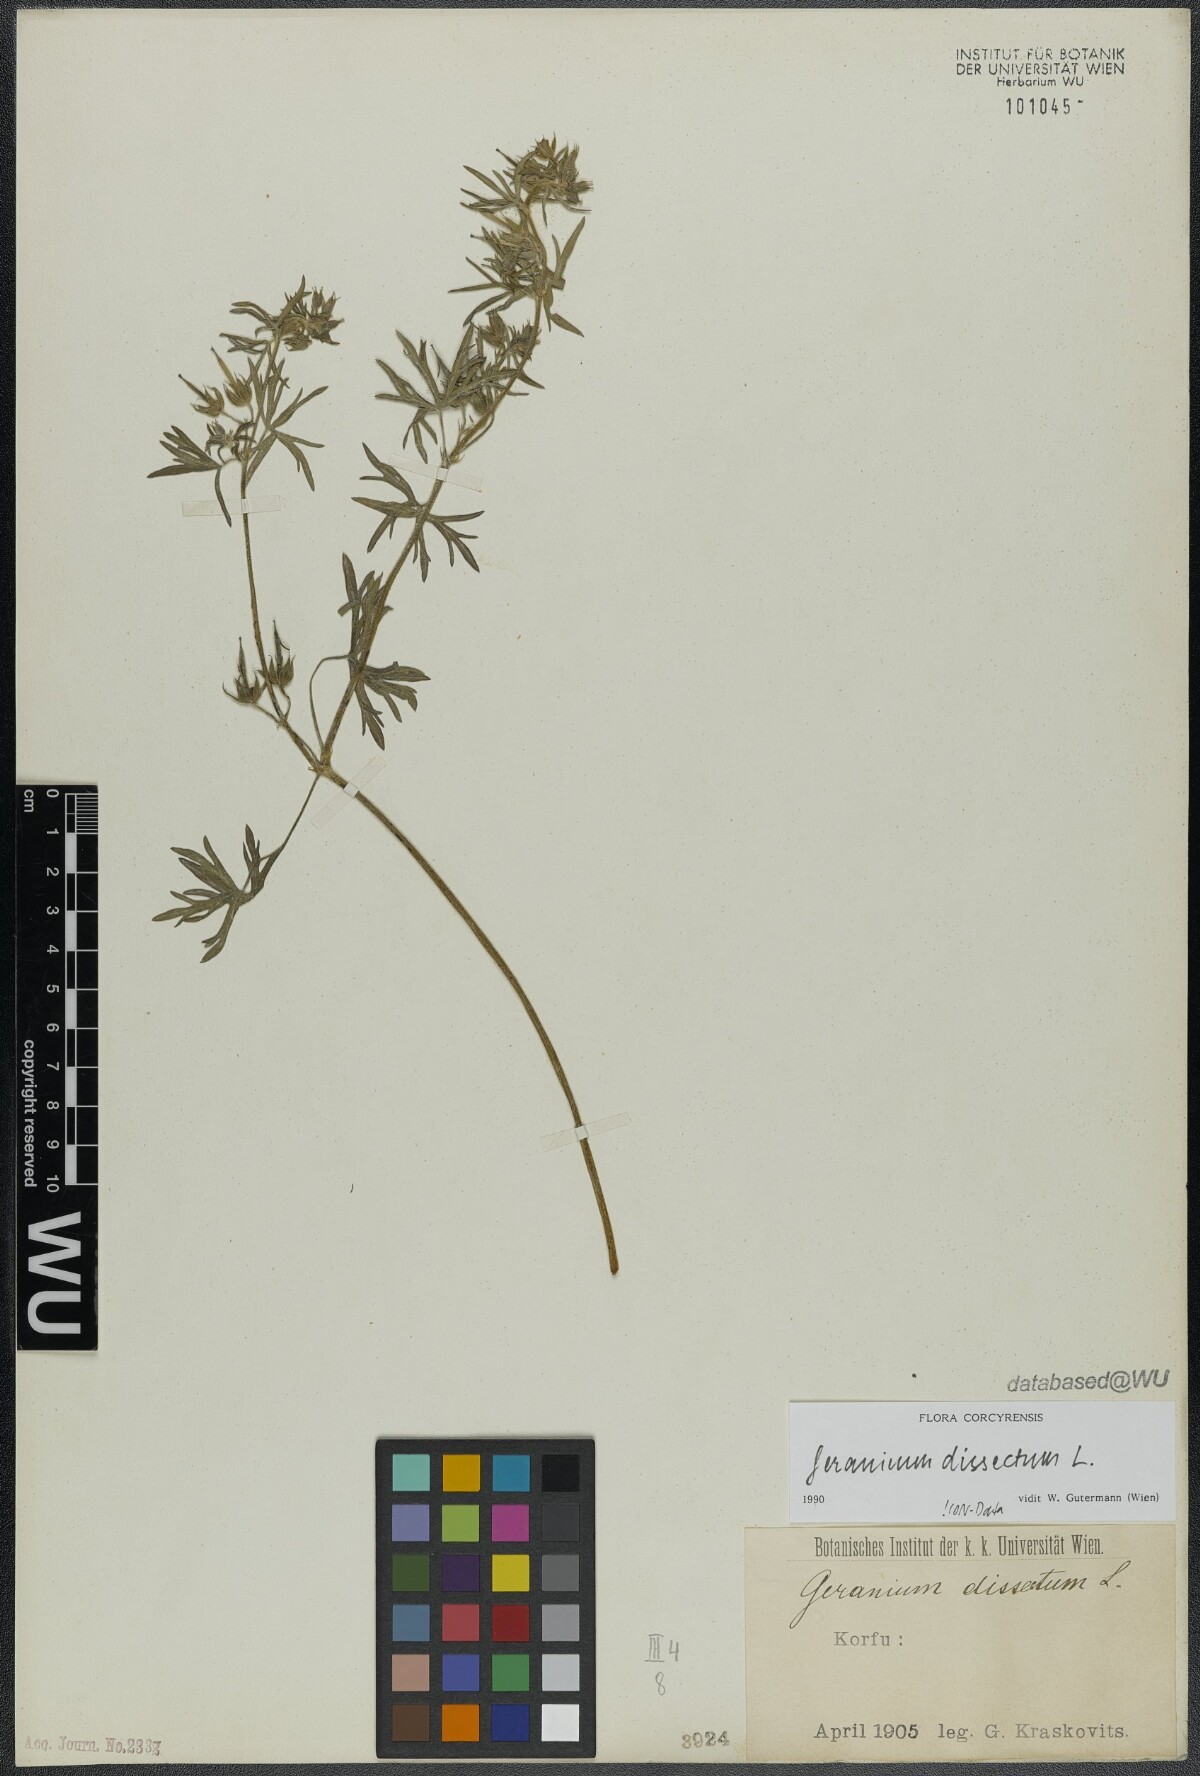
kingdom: Plantae
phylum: Tracheophyta
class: Magnoliopsida
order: Geraniales
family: Geraniaceae
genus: Geranium
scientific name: Geranium dissectum
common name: Cut-leaved crane's-bill
